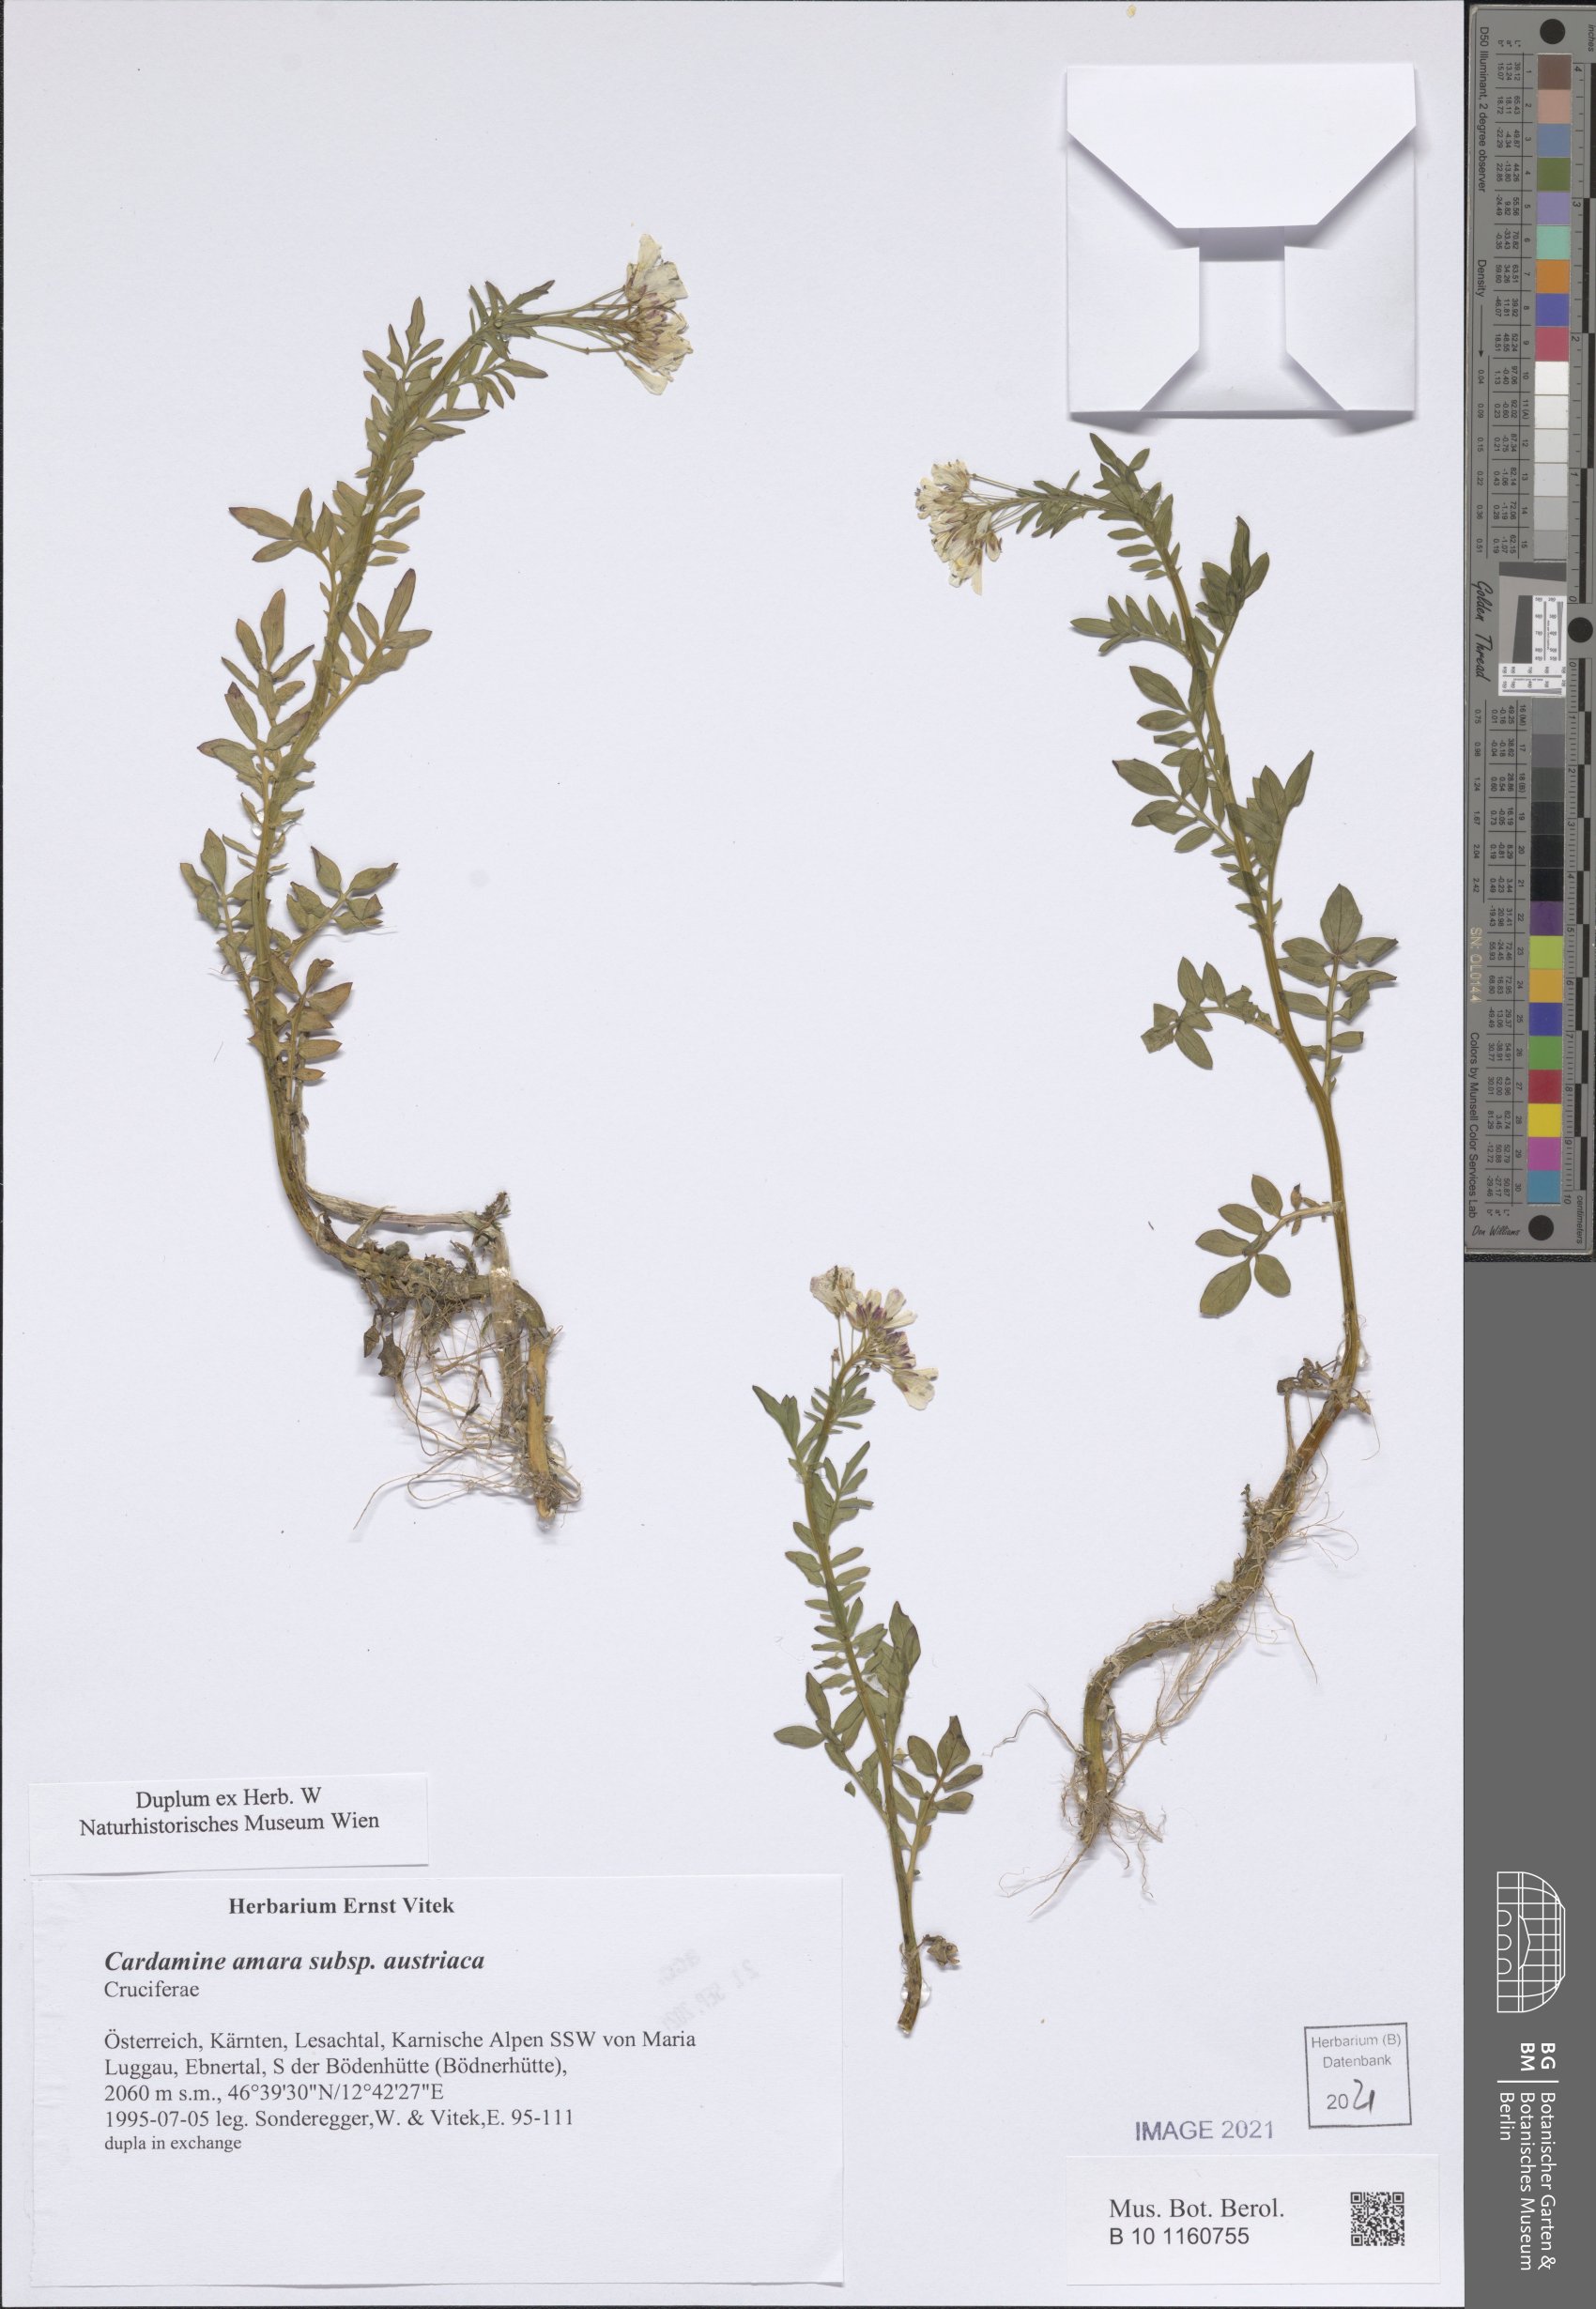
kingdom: Plantae
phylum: Tracheophyta
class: Magnoliopsida
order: Brassicales
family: Brassicaceae
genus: Cardamine
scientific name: Cardamine amara
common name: Large bitter-cress
